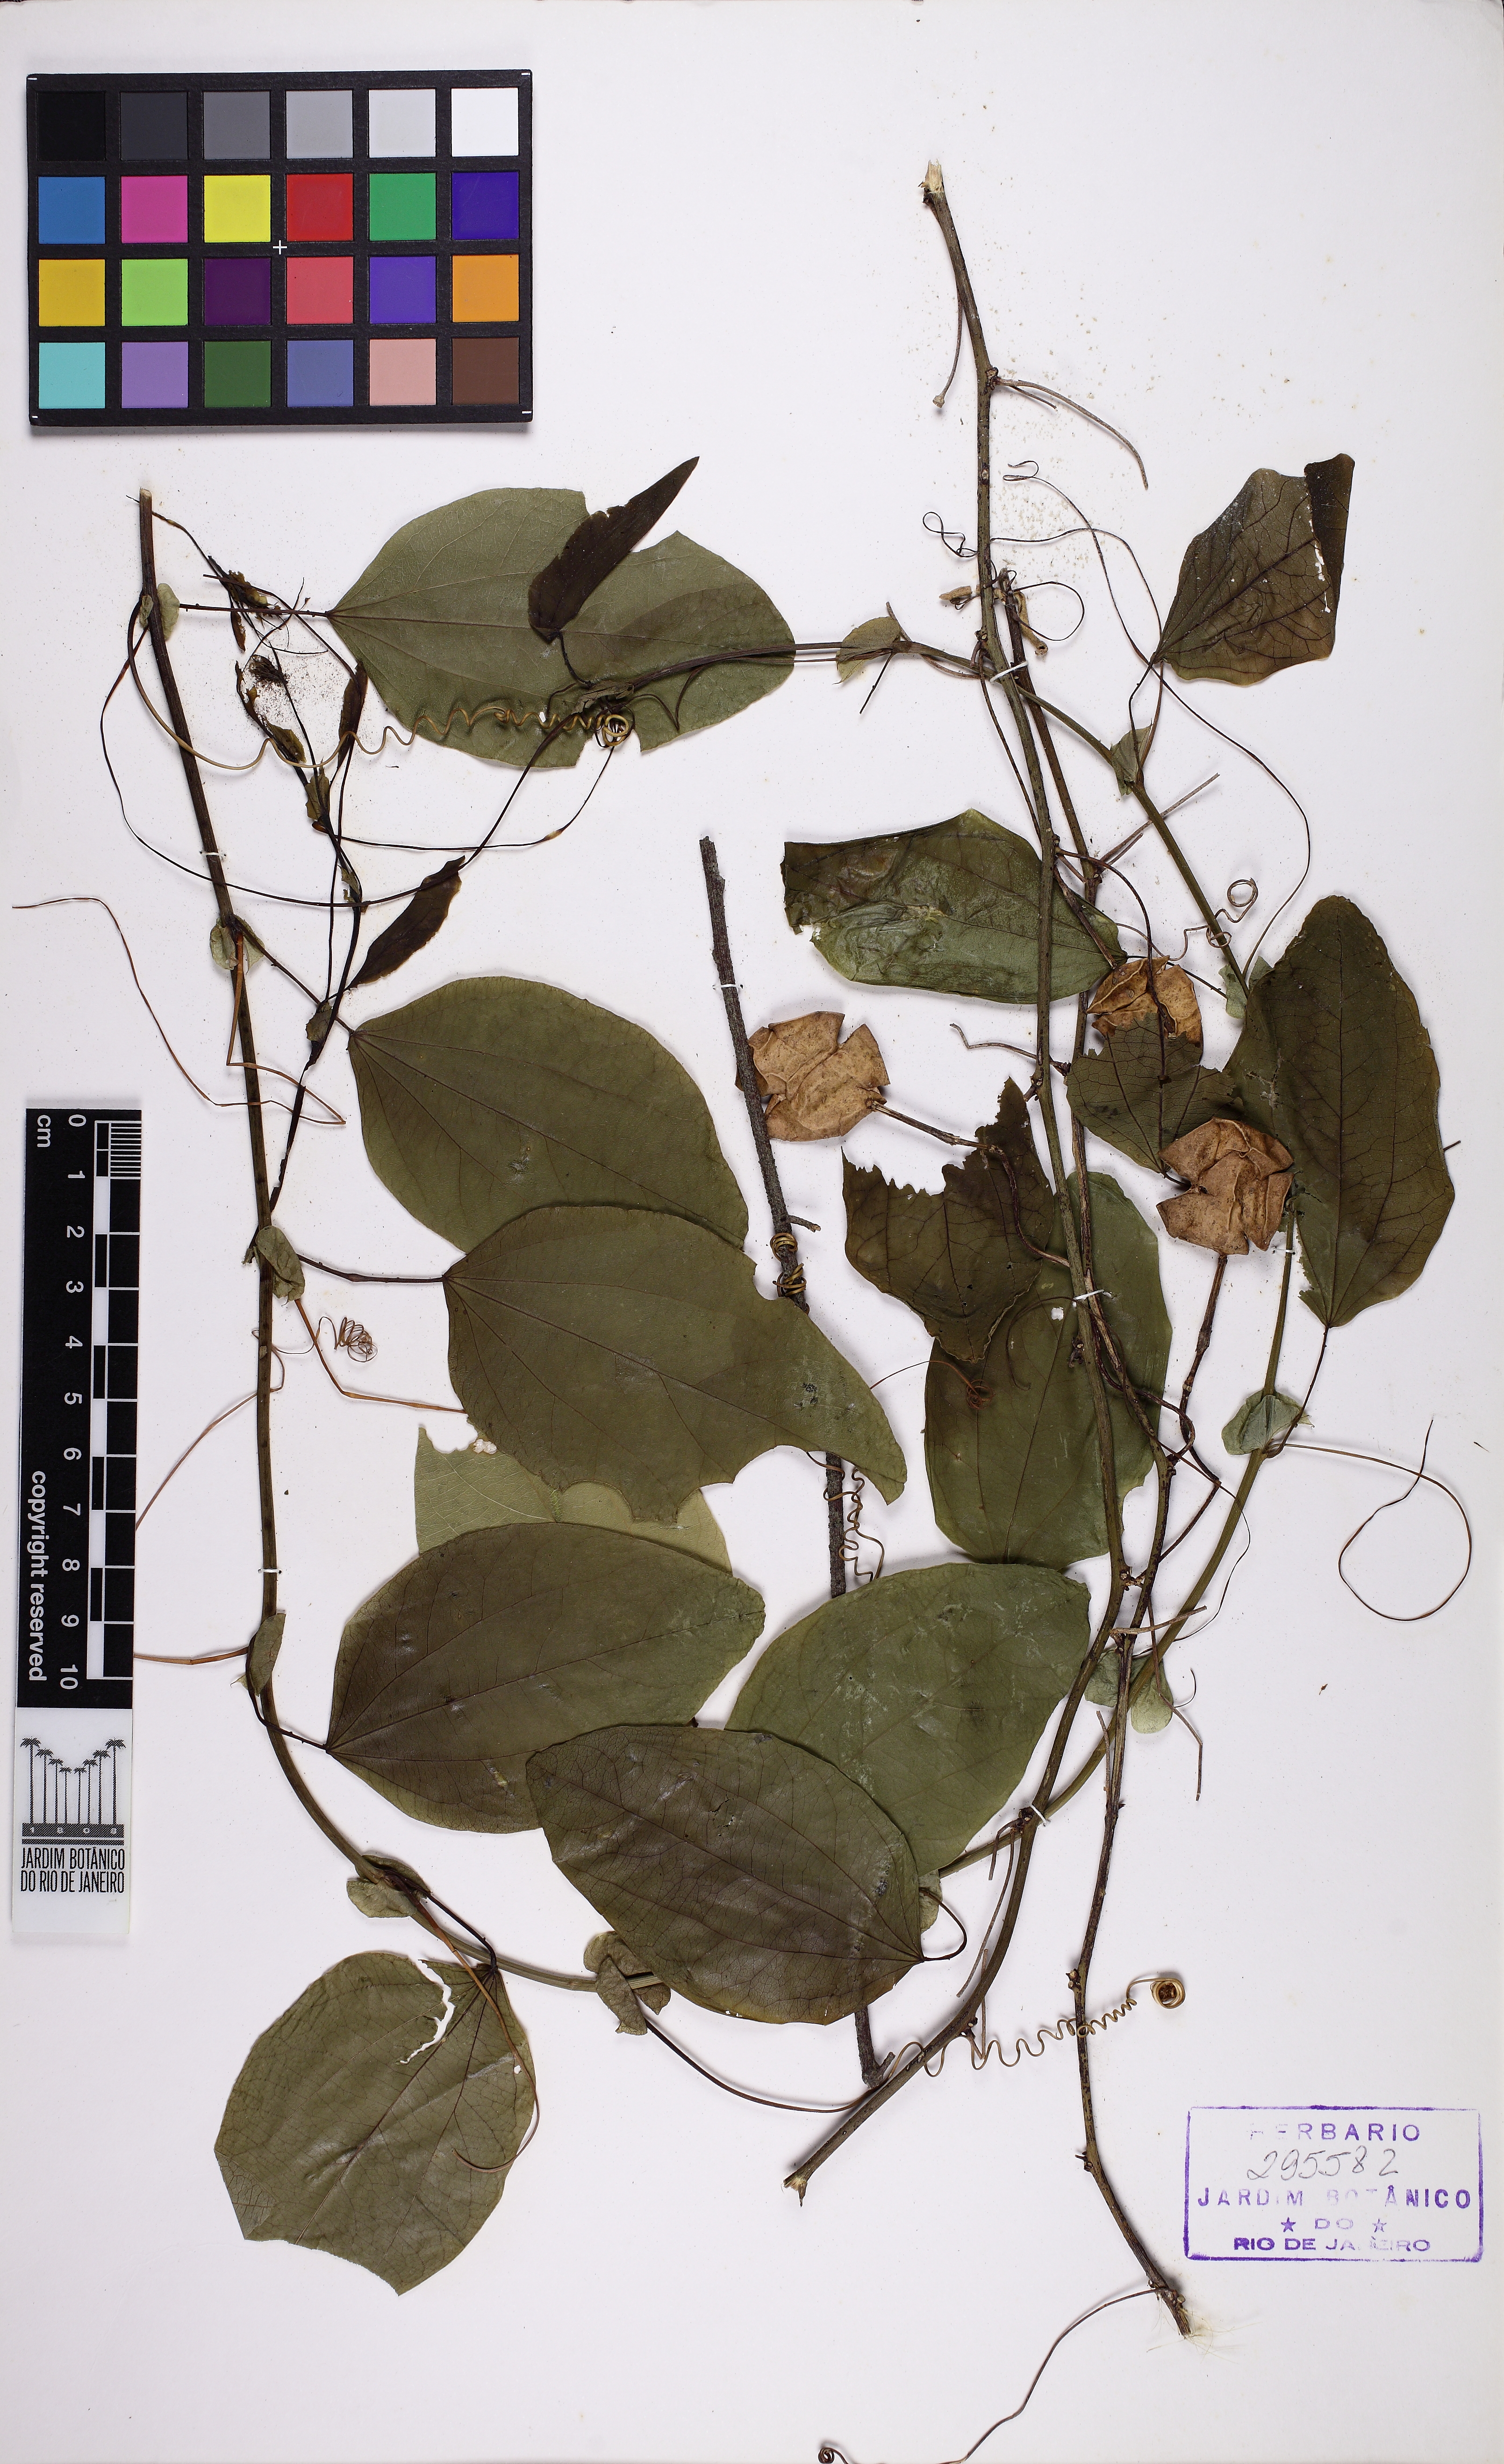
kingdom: Plantae
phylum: Tracheophyta
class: Magnoliopsida
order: Malpighiales
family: Passifloraceae
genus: Passiflora
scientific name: Passiflora actinia
